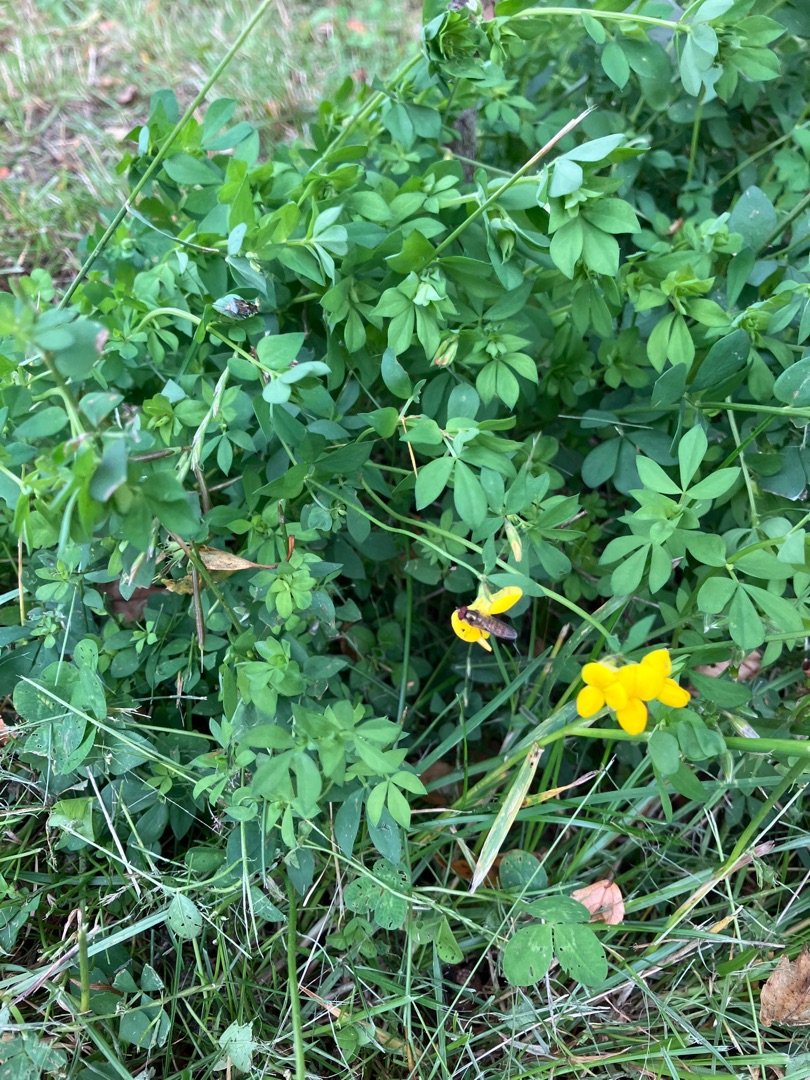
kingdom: Plantae
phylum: Tracheophyta
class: Magnoliopsida
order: Fabales
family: Fabaceae
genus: Lotus
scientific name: Lotus corniculatus
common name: Almindelig kællingetand
